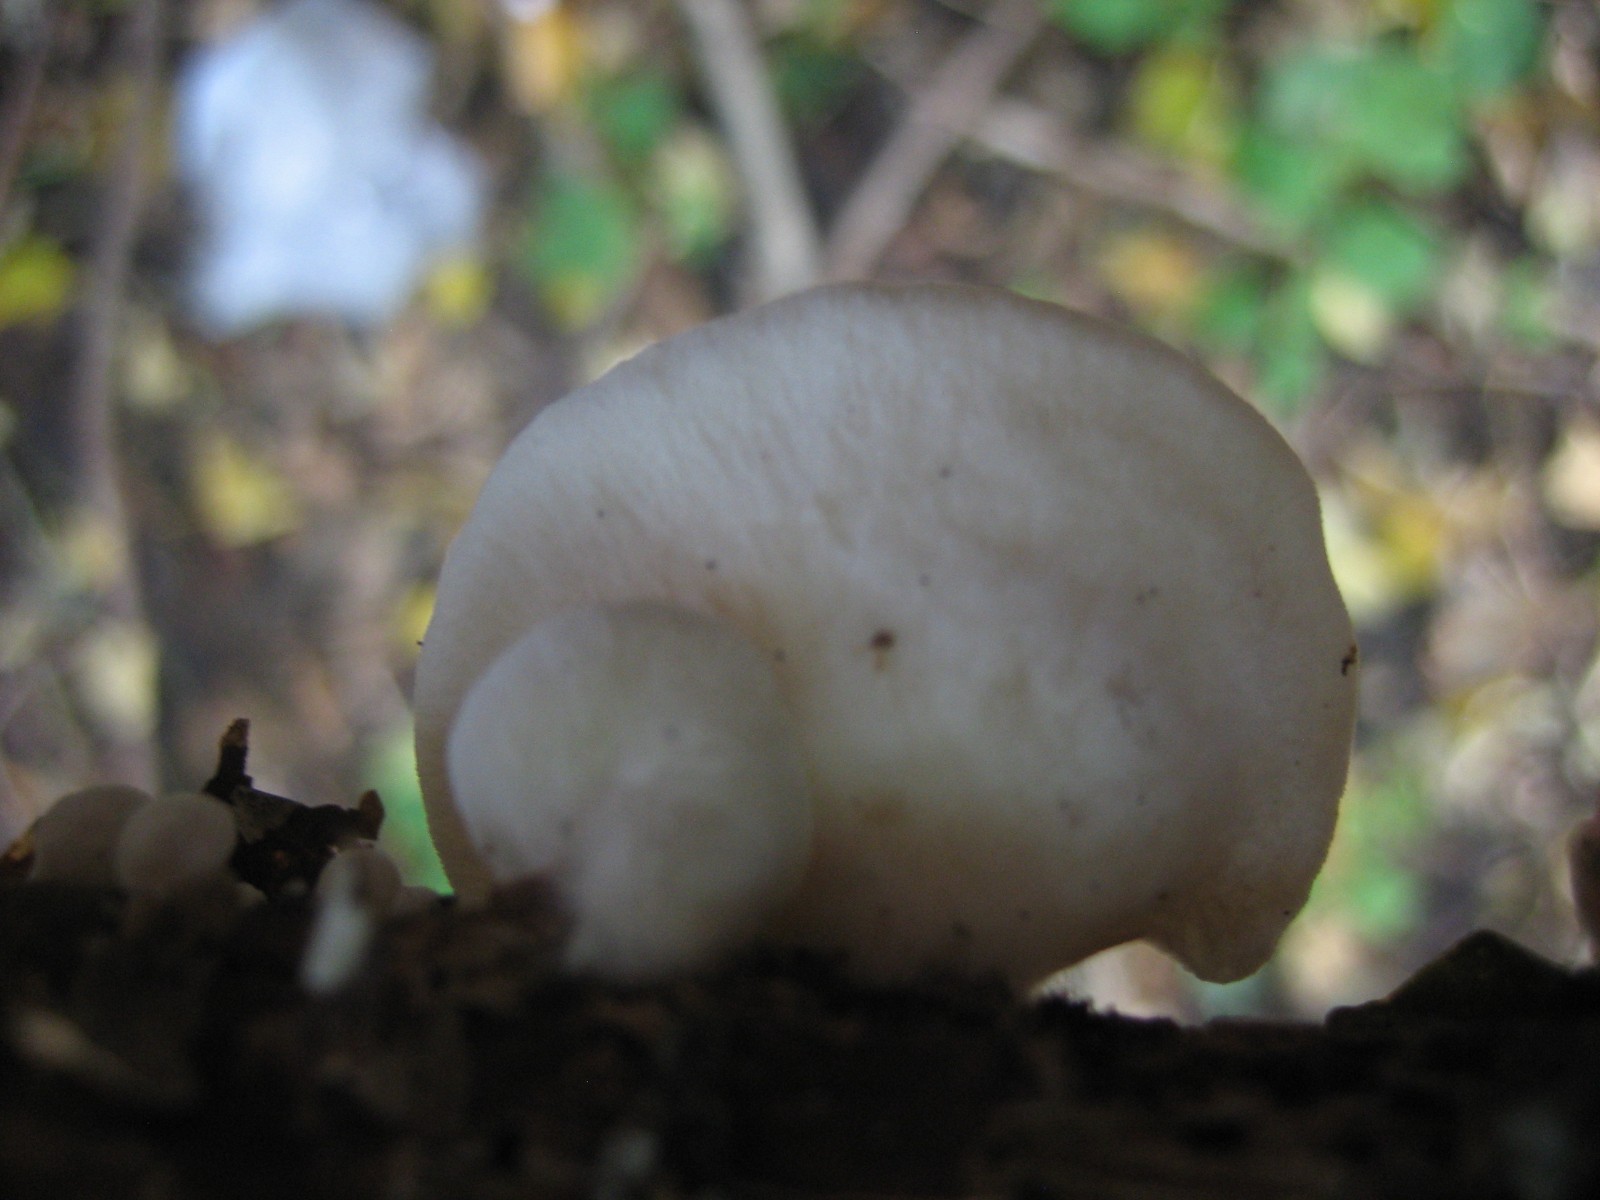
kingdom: Fungi
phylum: Basidiomycota
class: Agaricomycetes
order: Agaricales
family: Crepidotaceae
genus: Crepidotus
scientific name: Crepidotus
